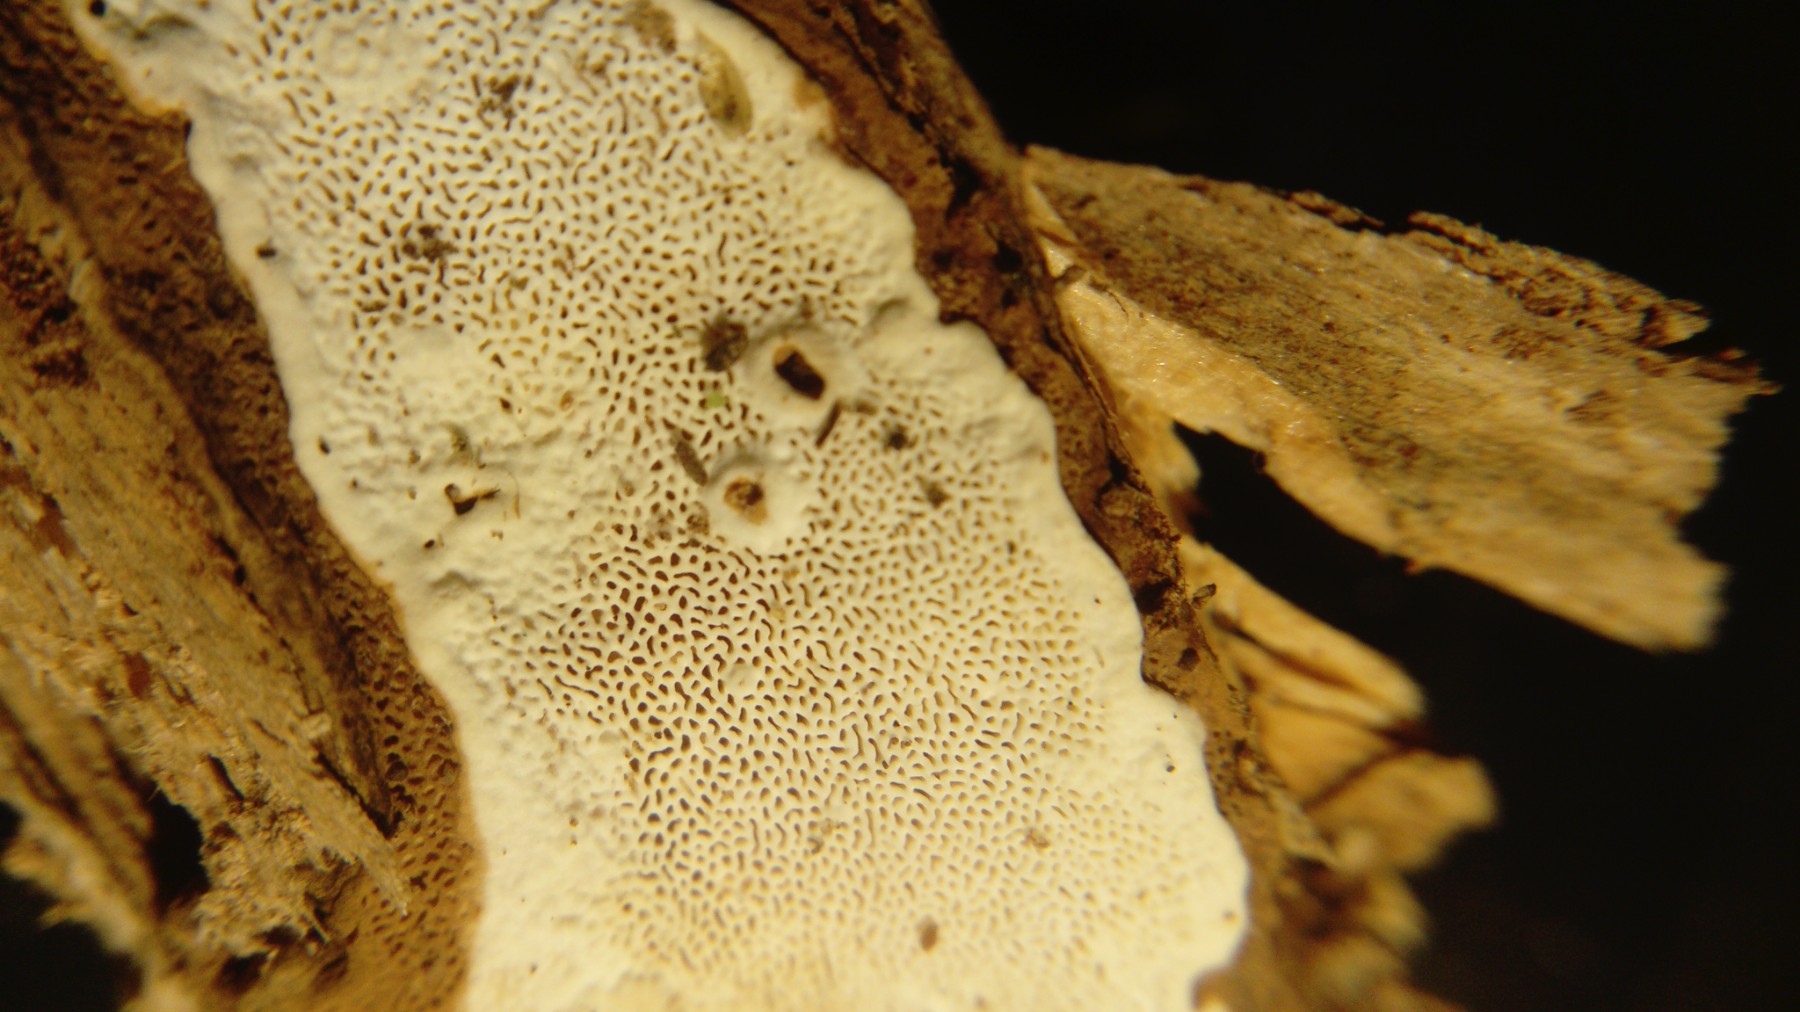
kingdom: Fungi
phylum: Basidiomycota
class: Agaricomycetes
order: Russulales
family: Bondarzewiaceae
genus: Heterobasidion
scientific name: Heterobasidion annosum
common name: almindelig rodfordærver
